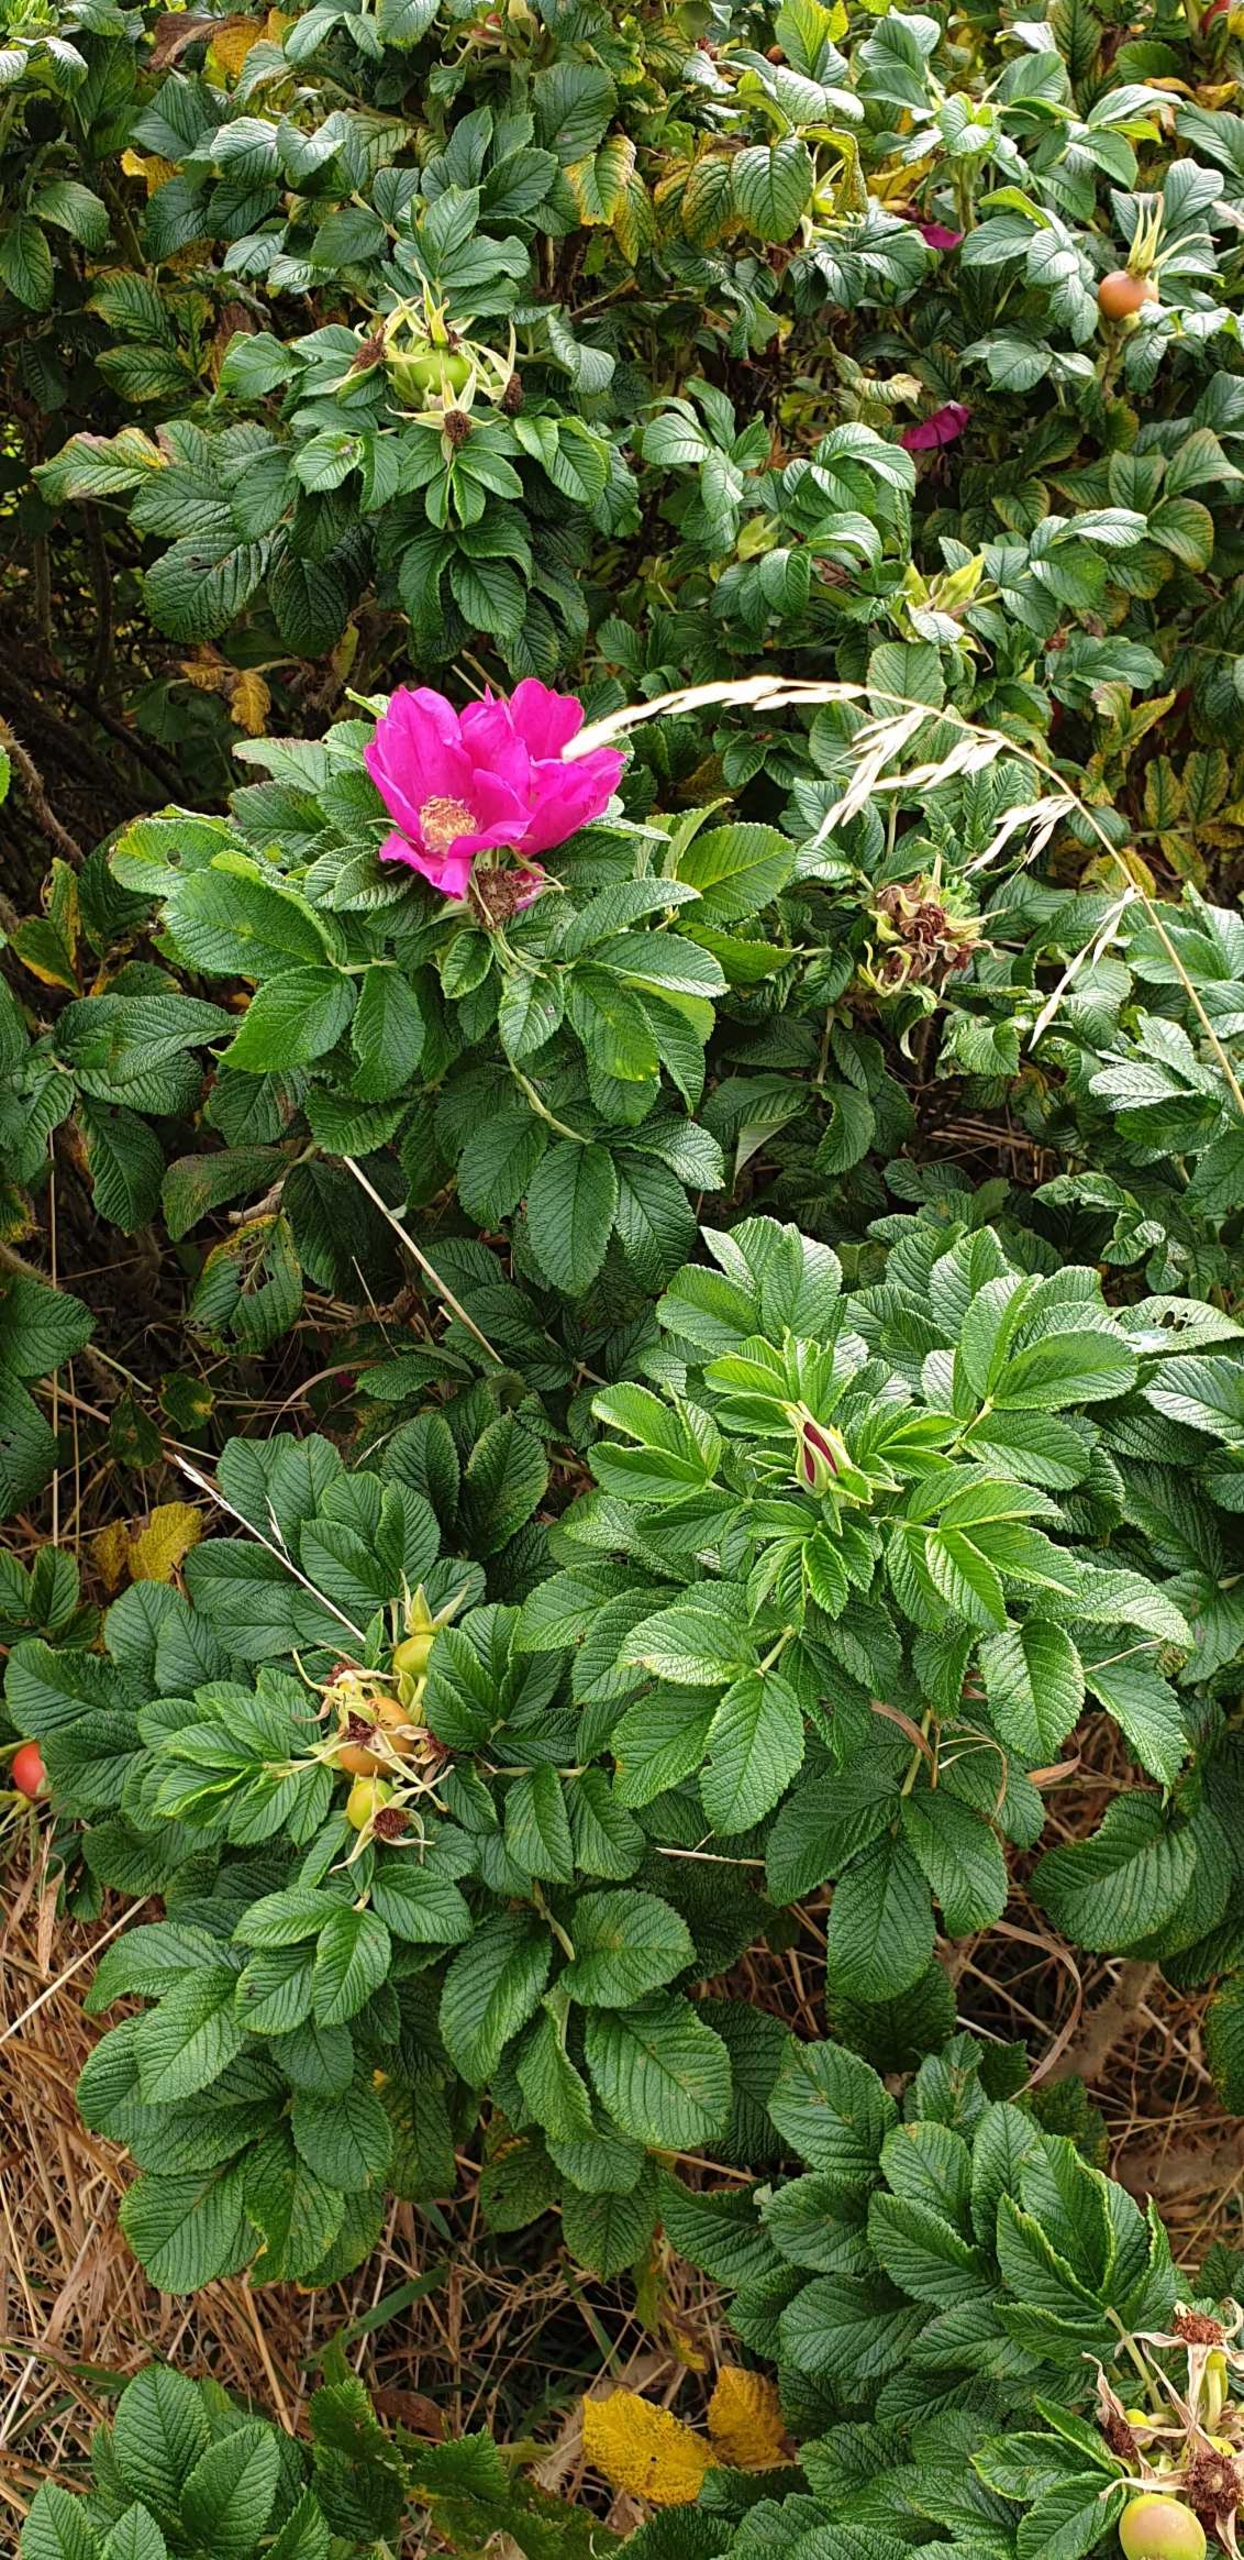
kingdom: Plantae
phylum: Tracheophyta
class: Magnoliopsida
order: Rosales
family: Rosaceae
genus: Rosa
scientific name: Rosa rugosa
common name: Rynket rose
